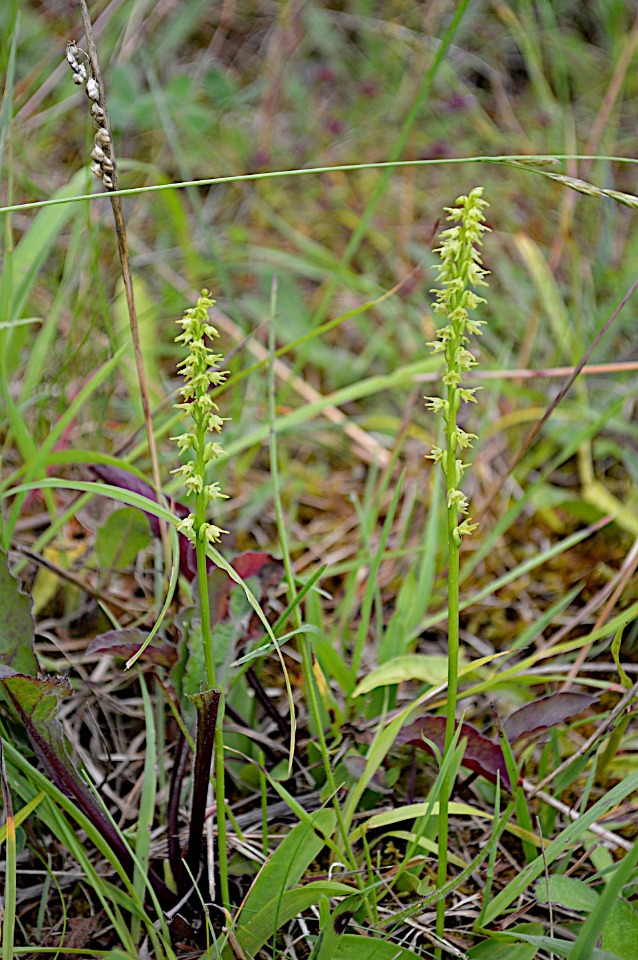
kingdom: Plantae
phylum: Tracheophyta
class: Liliopsida
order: Asparagales
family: Orchidaceae
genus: Herminium
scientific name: Herminium monorchis
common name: Pukkellæbe
